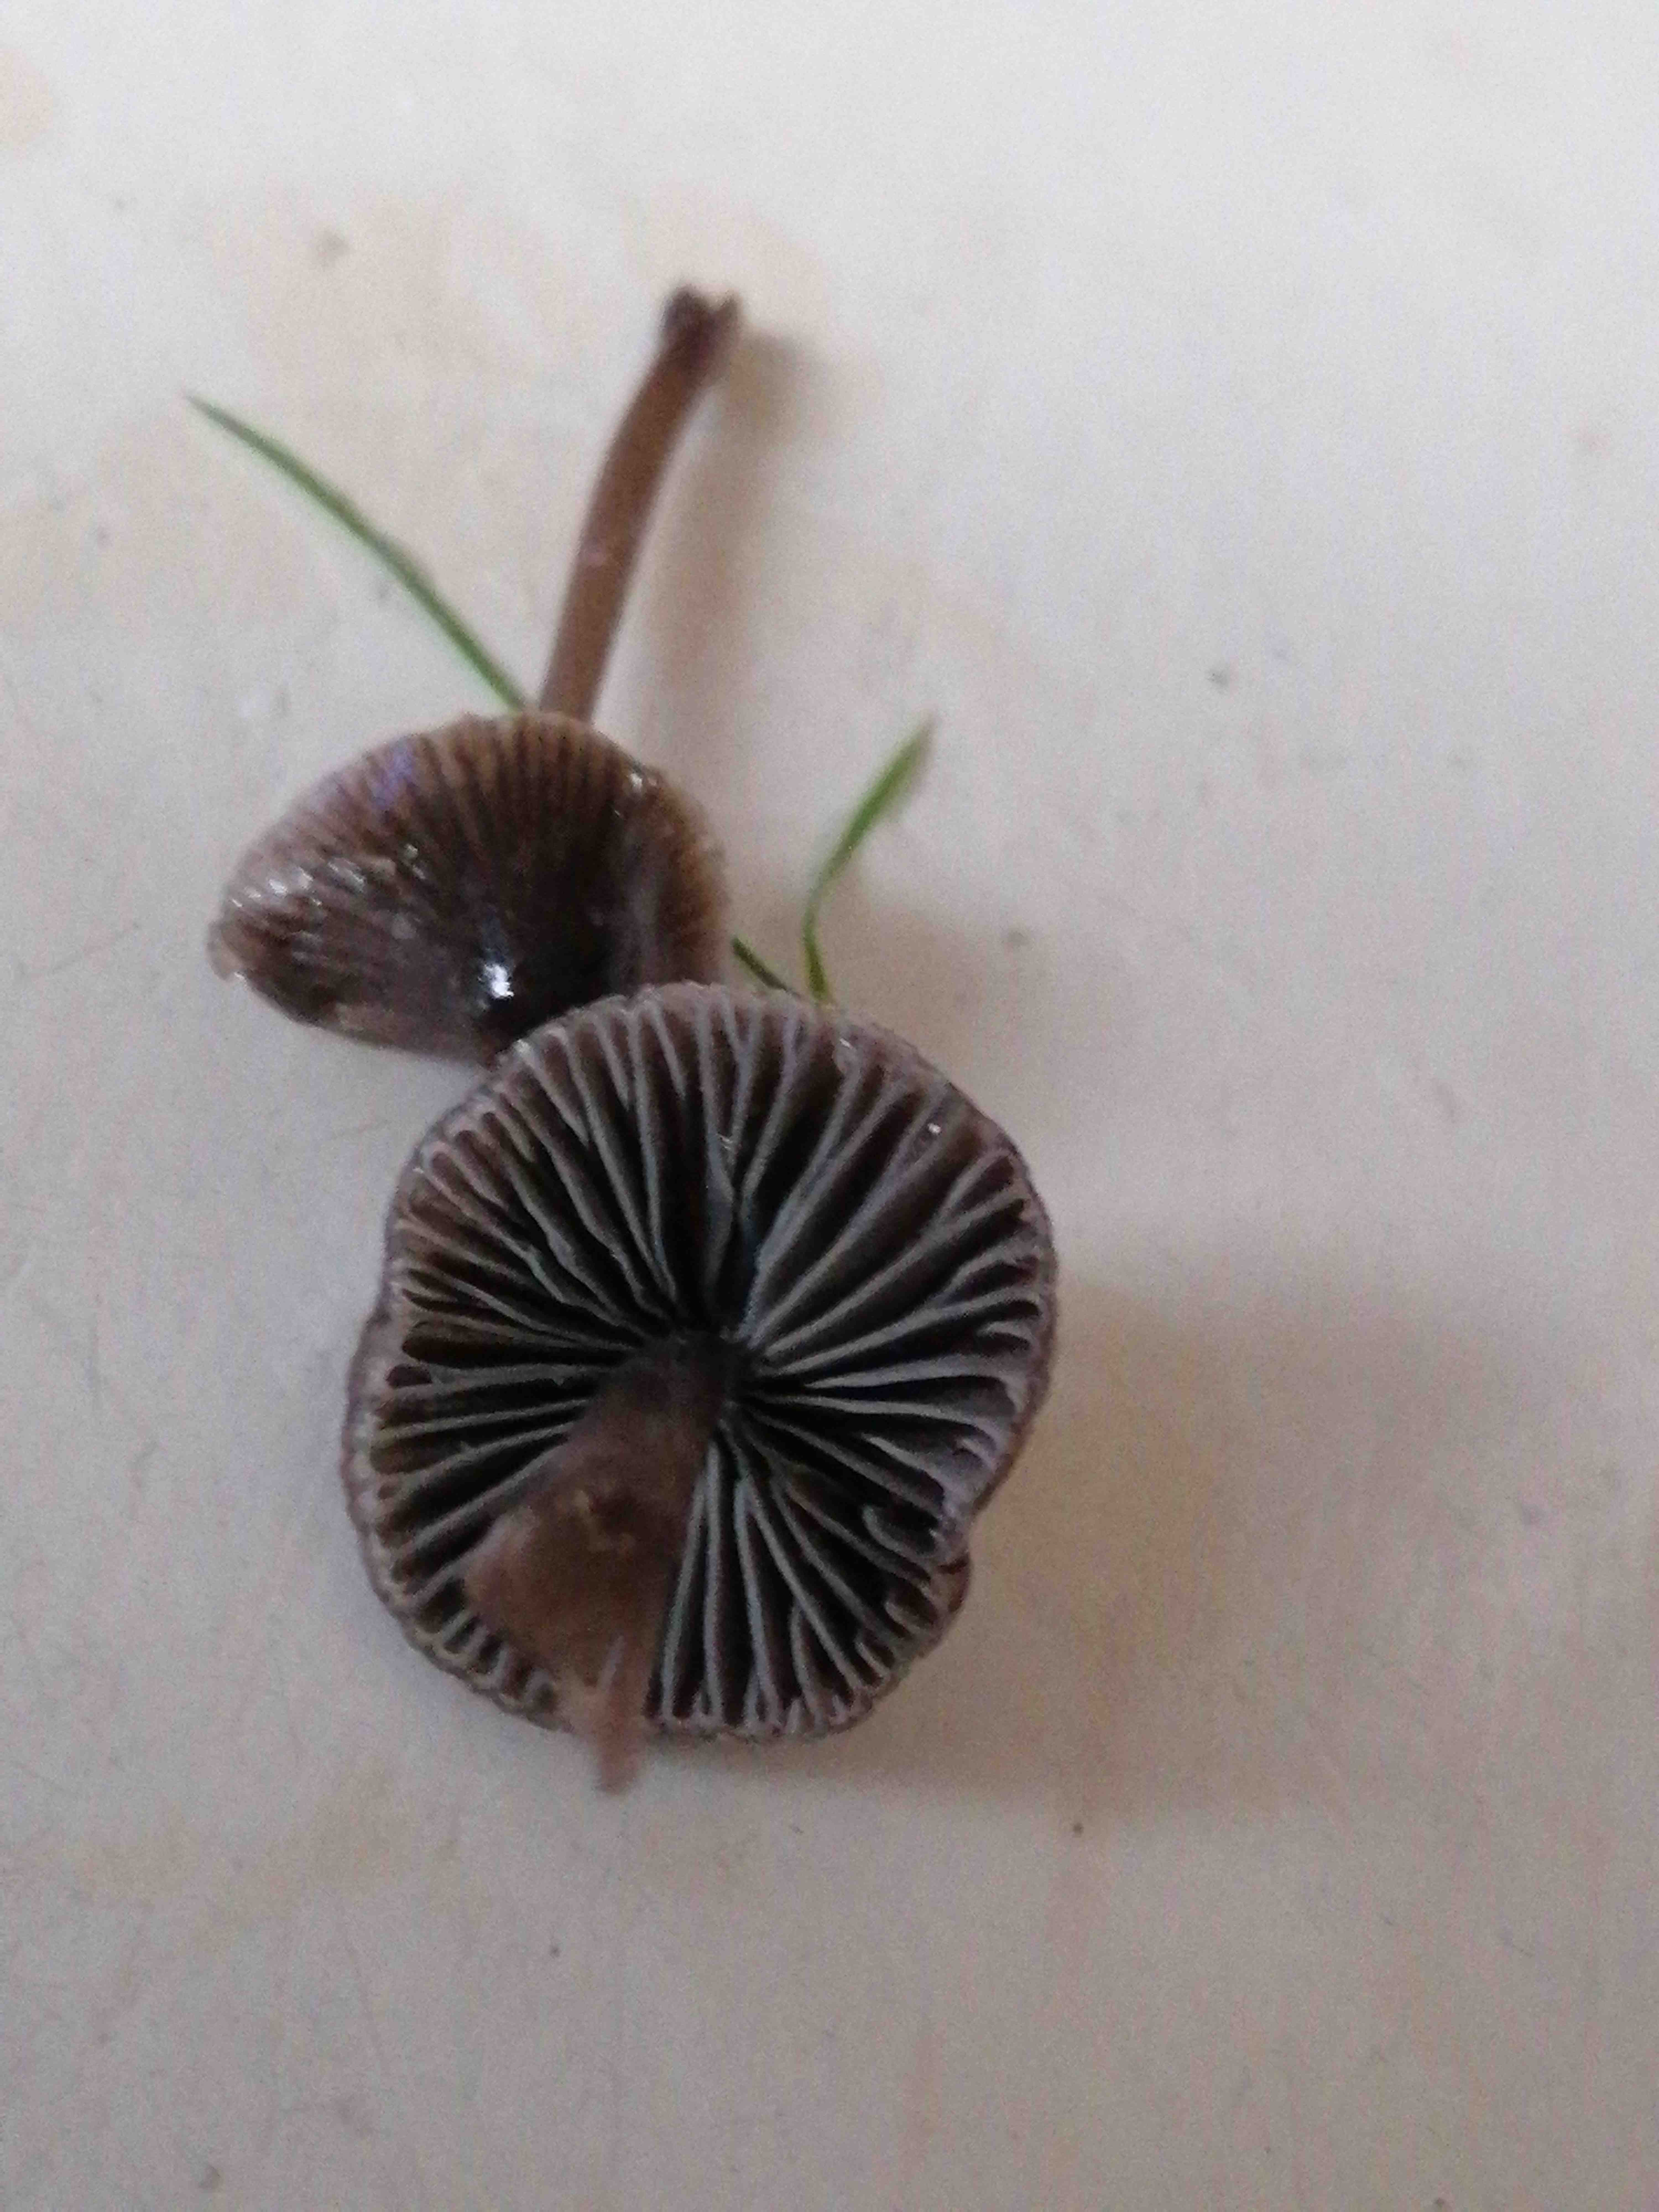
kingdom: Fungi
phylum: Basidiomycota
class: Agaricomycetes
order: Agaricales
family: Mycenaceae
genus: Mycena
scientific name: Mycena
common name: huesvamp
